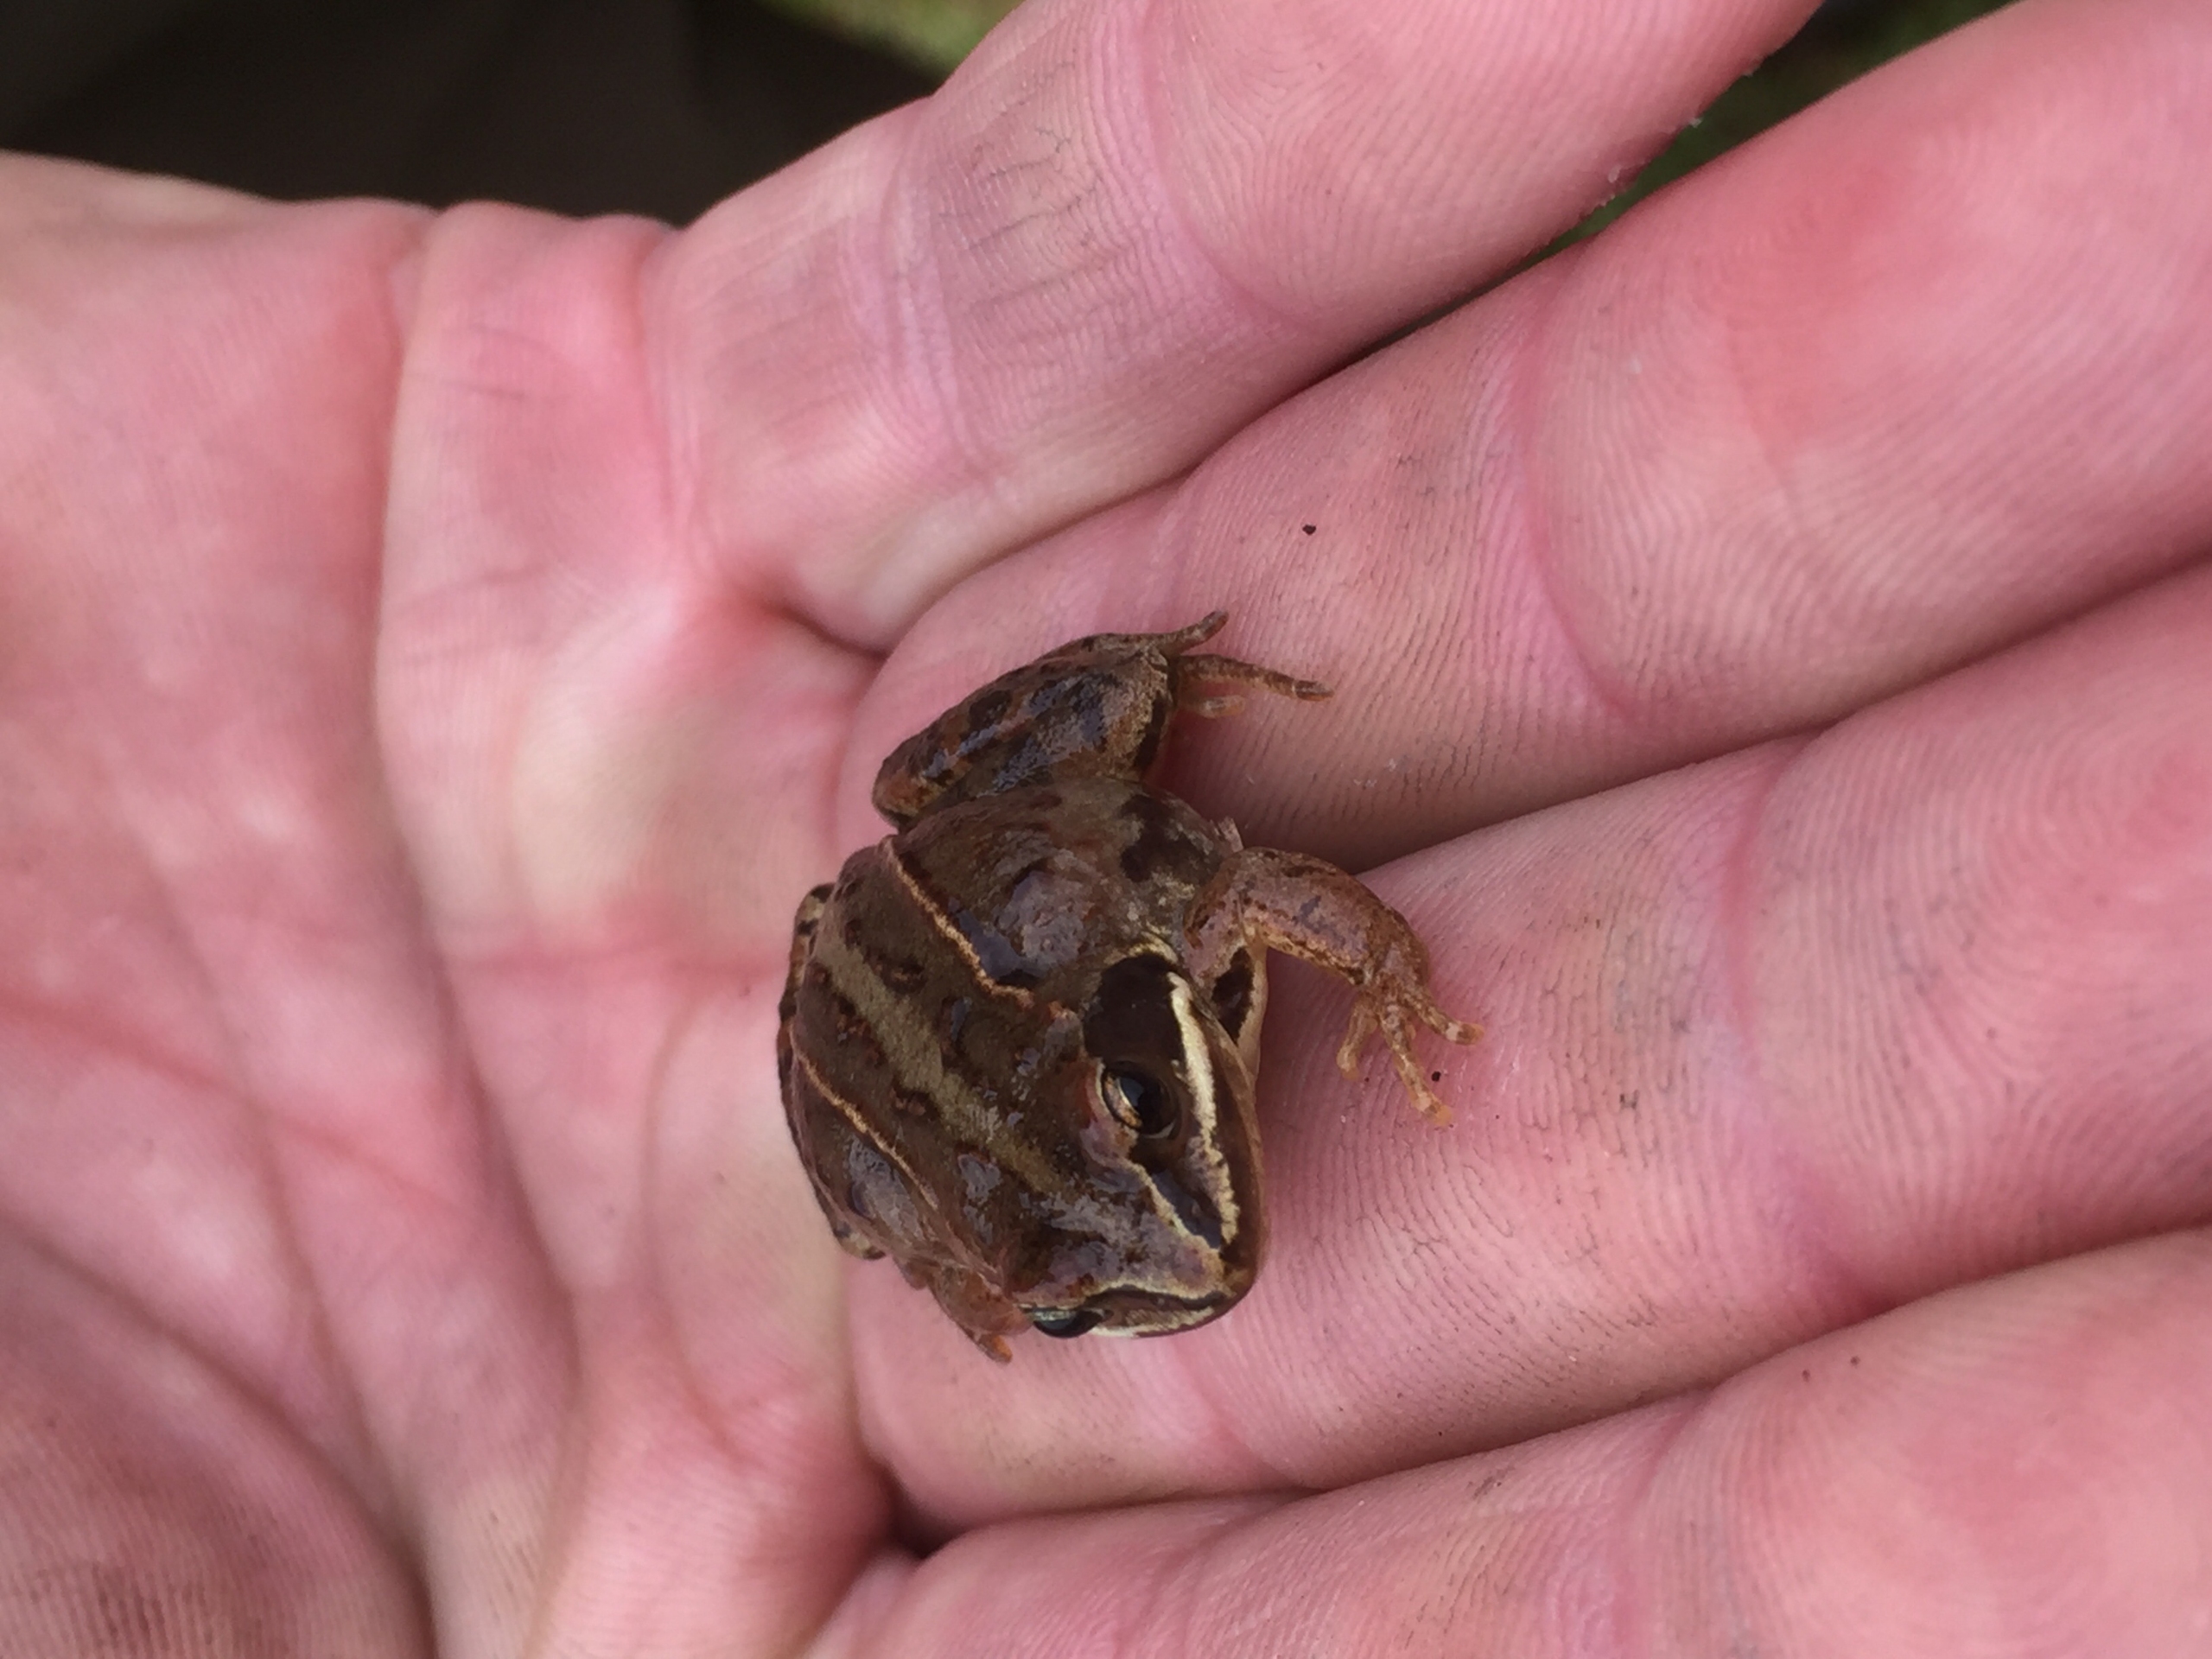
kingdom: Animalia
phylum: Chordata
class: Amphibia
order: Anura
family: Ranidae
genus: Rana
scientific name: Rana arvalis
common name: Spidssnudet frø
